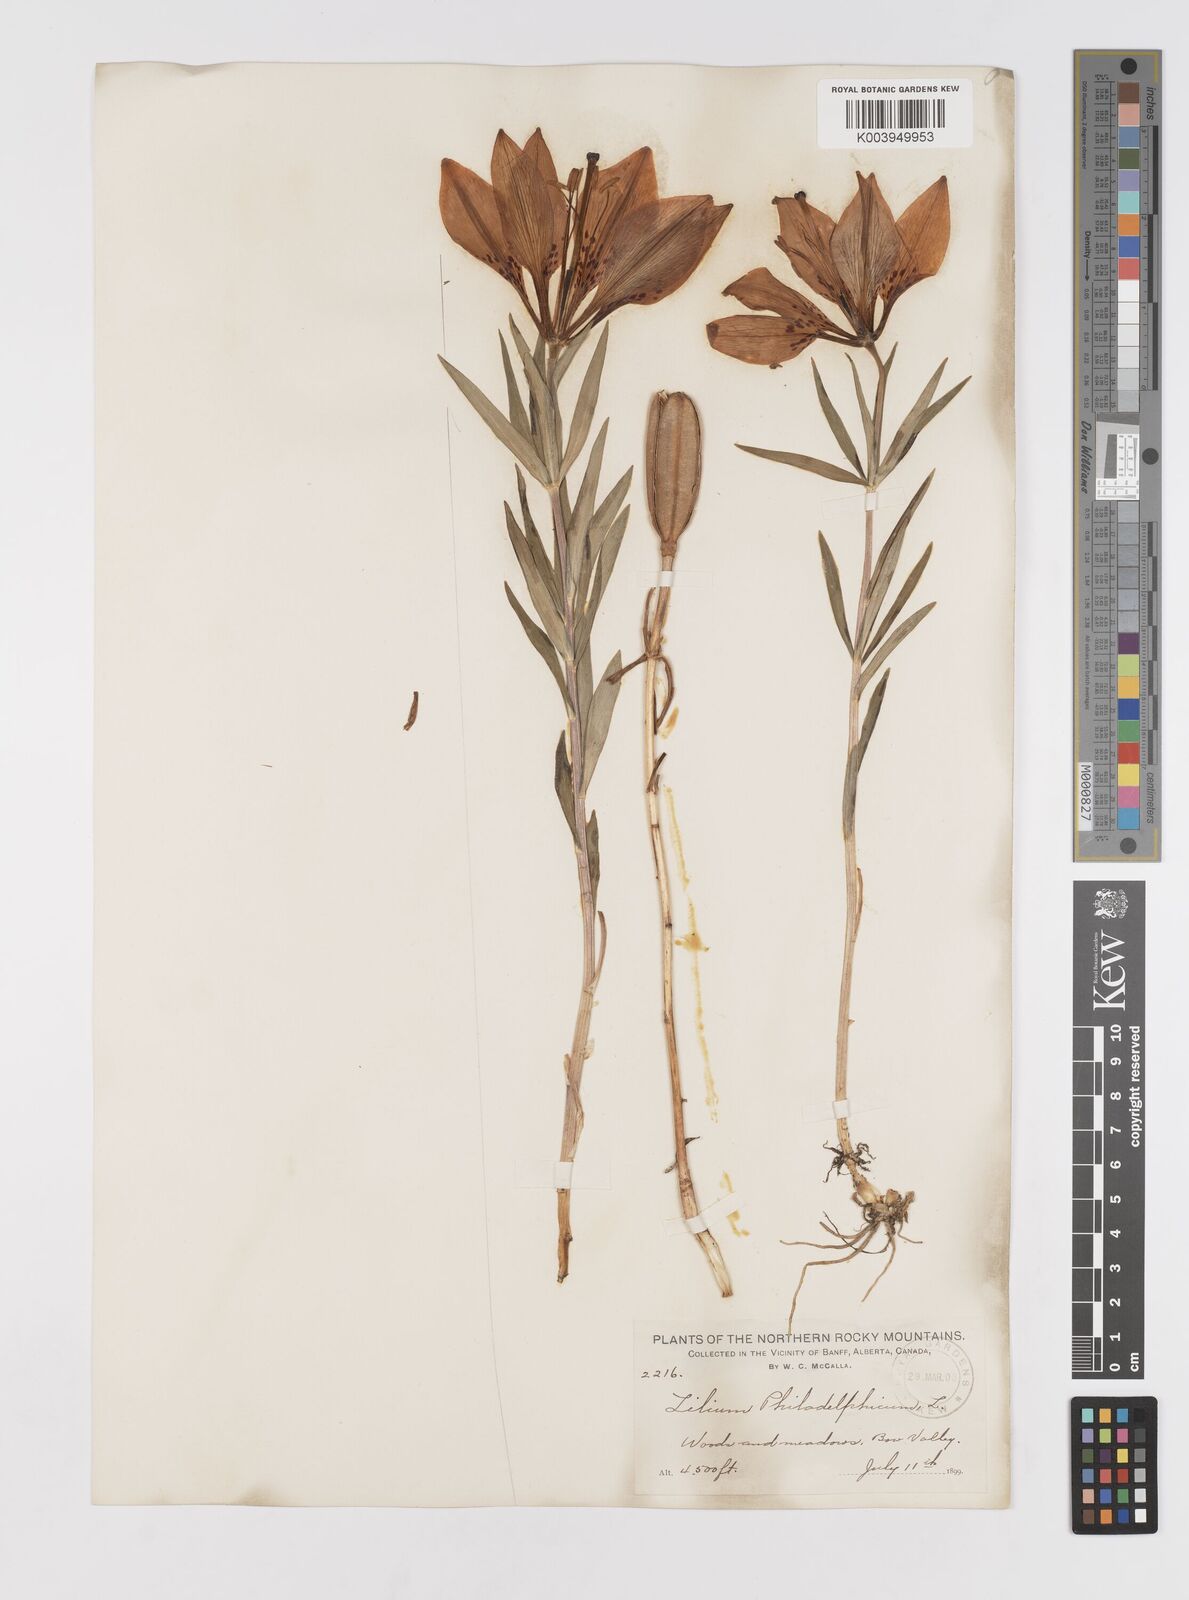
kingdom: Plantae
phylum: Tracheophyta
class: Liliopsida
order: Liliales
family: Liliaceae
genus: Lilium
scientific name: Lilium philadelphicum
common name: Red lily
